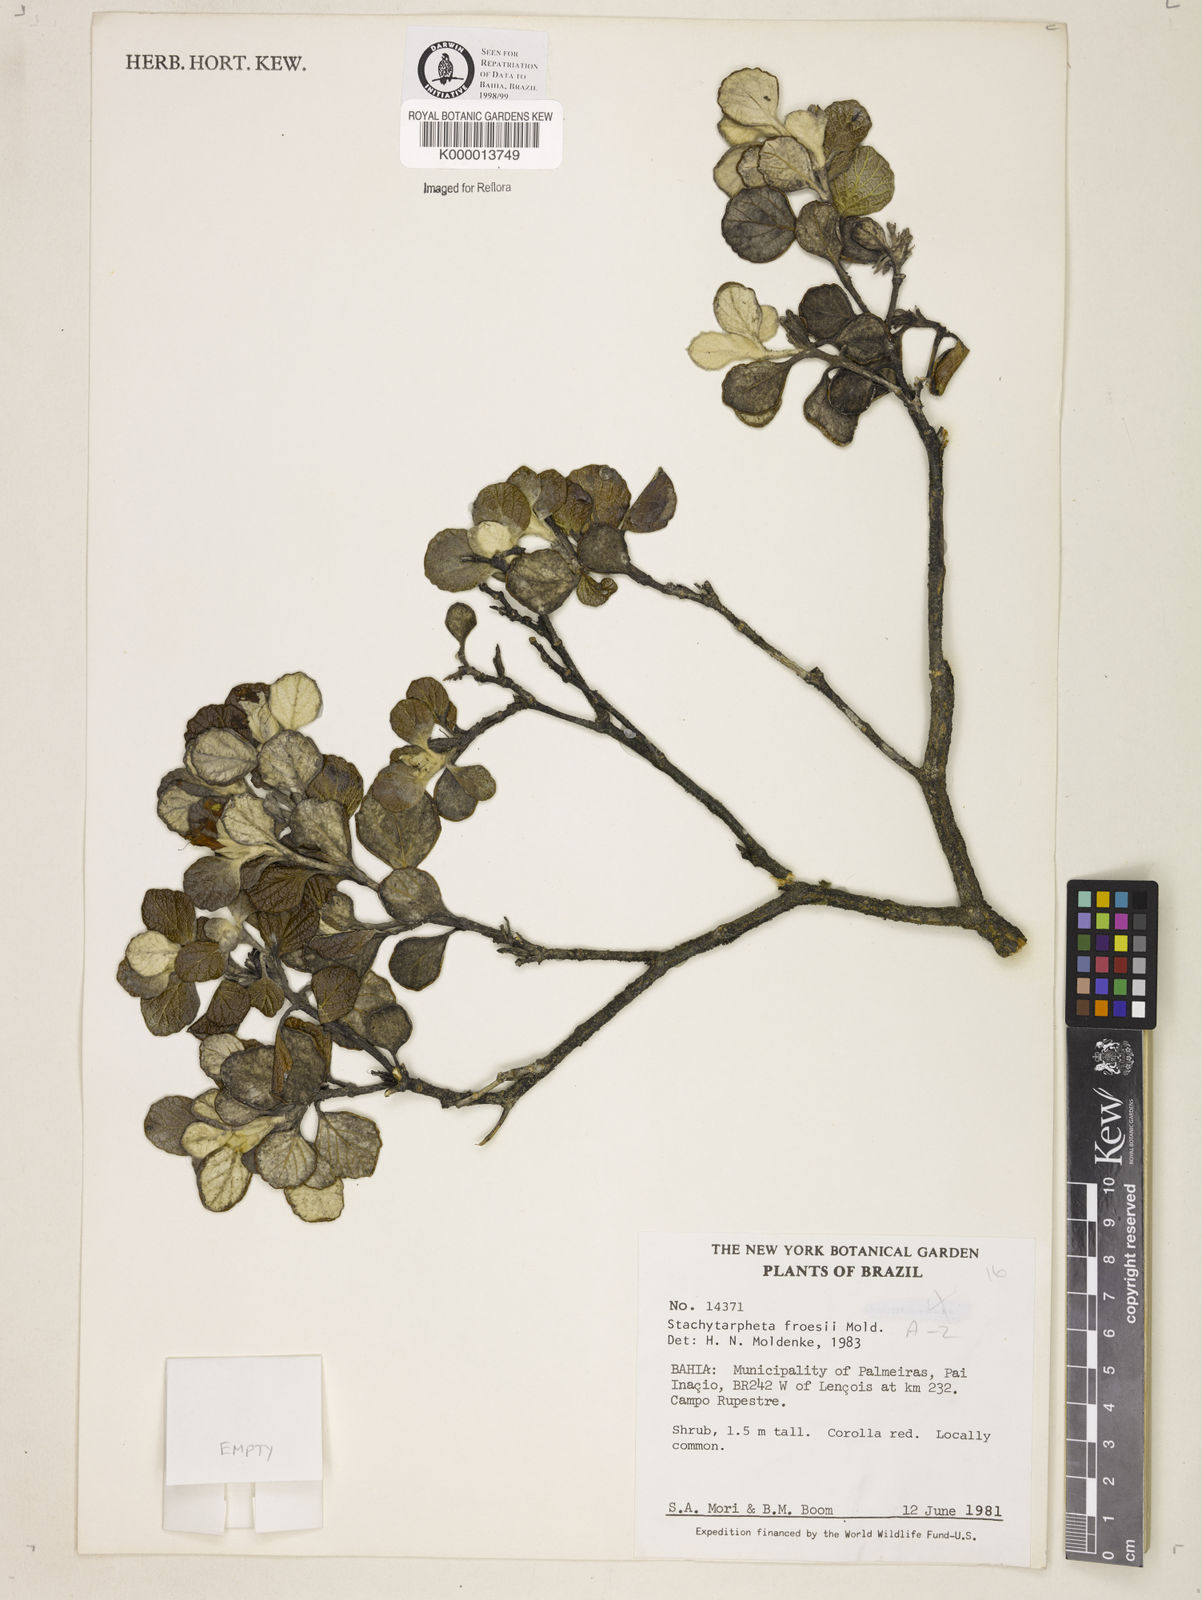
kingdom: Plantae
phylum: Tracheophyta
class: Magnoliopsida
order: Lamiales
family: Verbenaceae
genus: Stachytarpheta
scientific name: Stachytarpheta froesii
